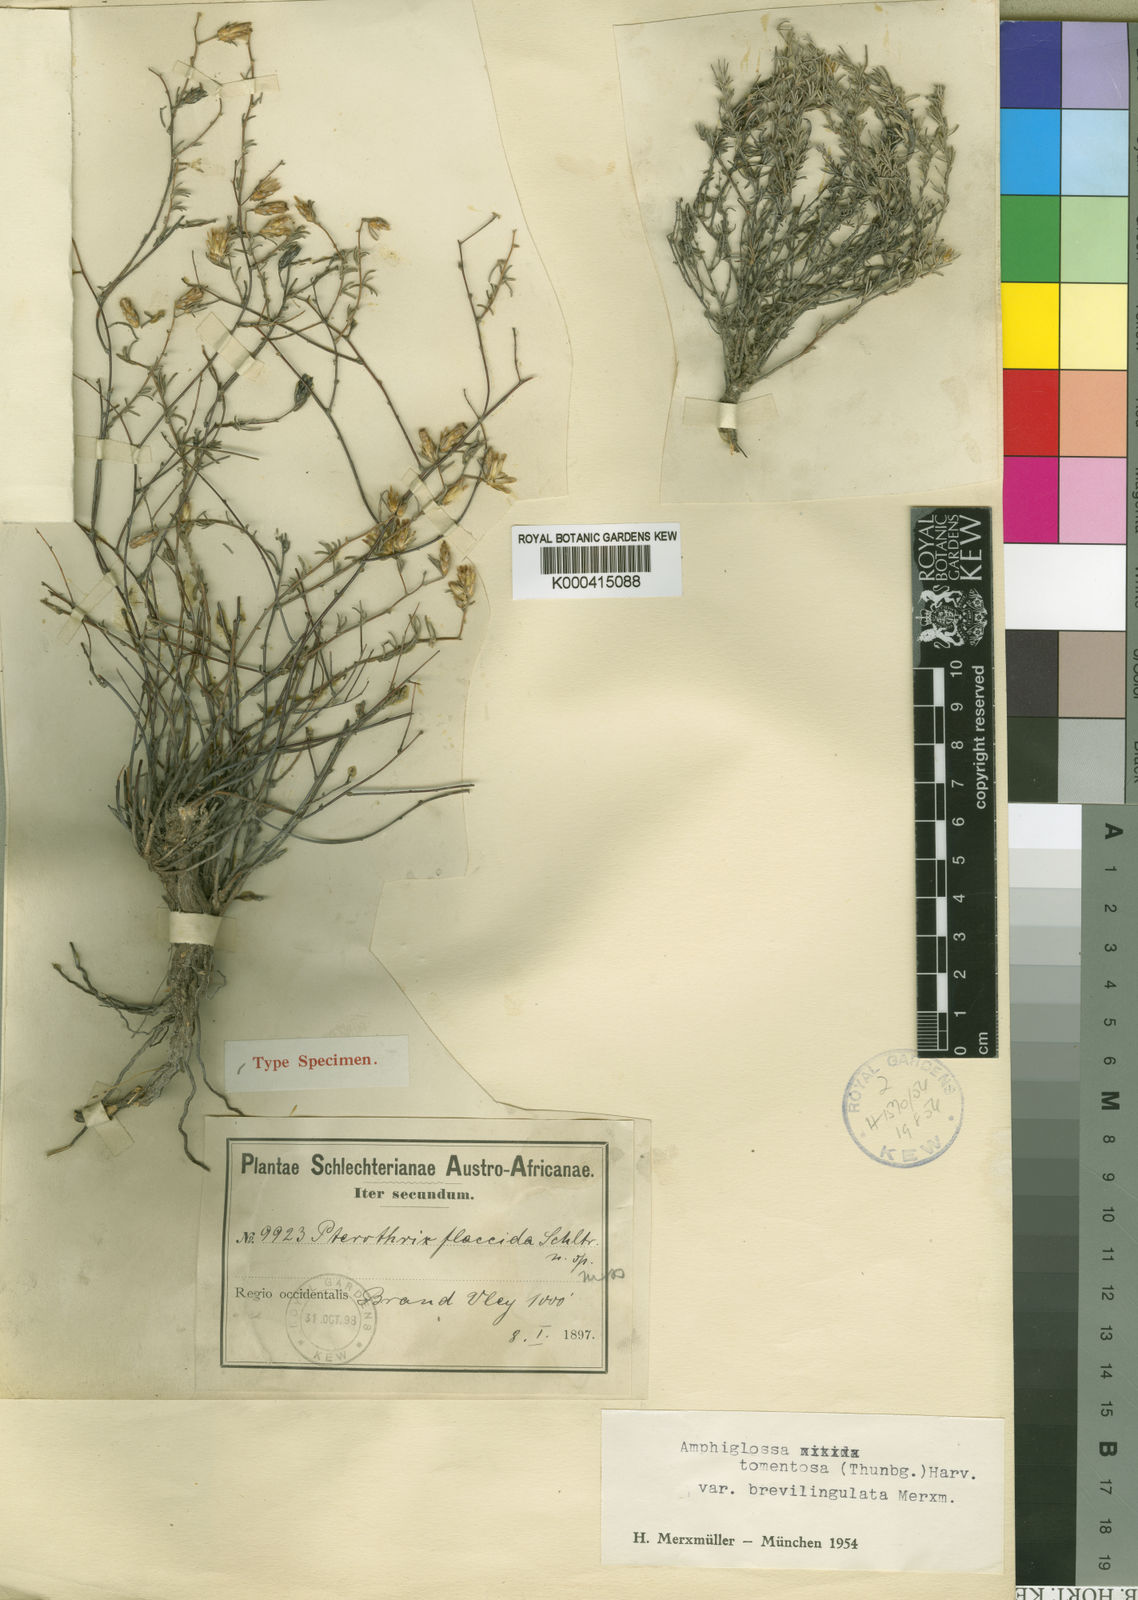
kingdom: Plantae
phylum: Tracheophyta
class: Magnoliopsida
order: Asterales
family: Asteraceae
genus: Amphiglossa
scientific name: Amphiglossa tomentosa
